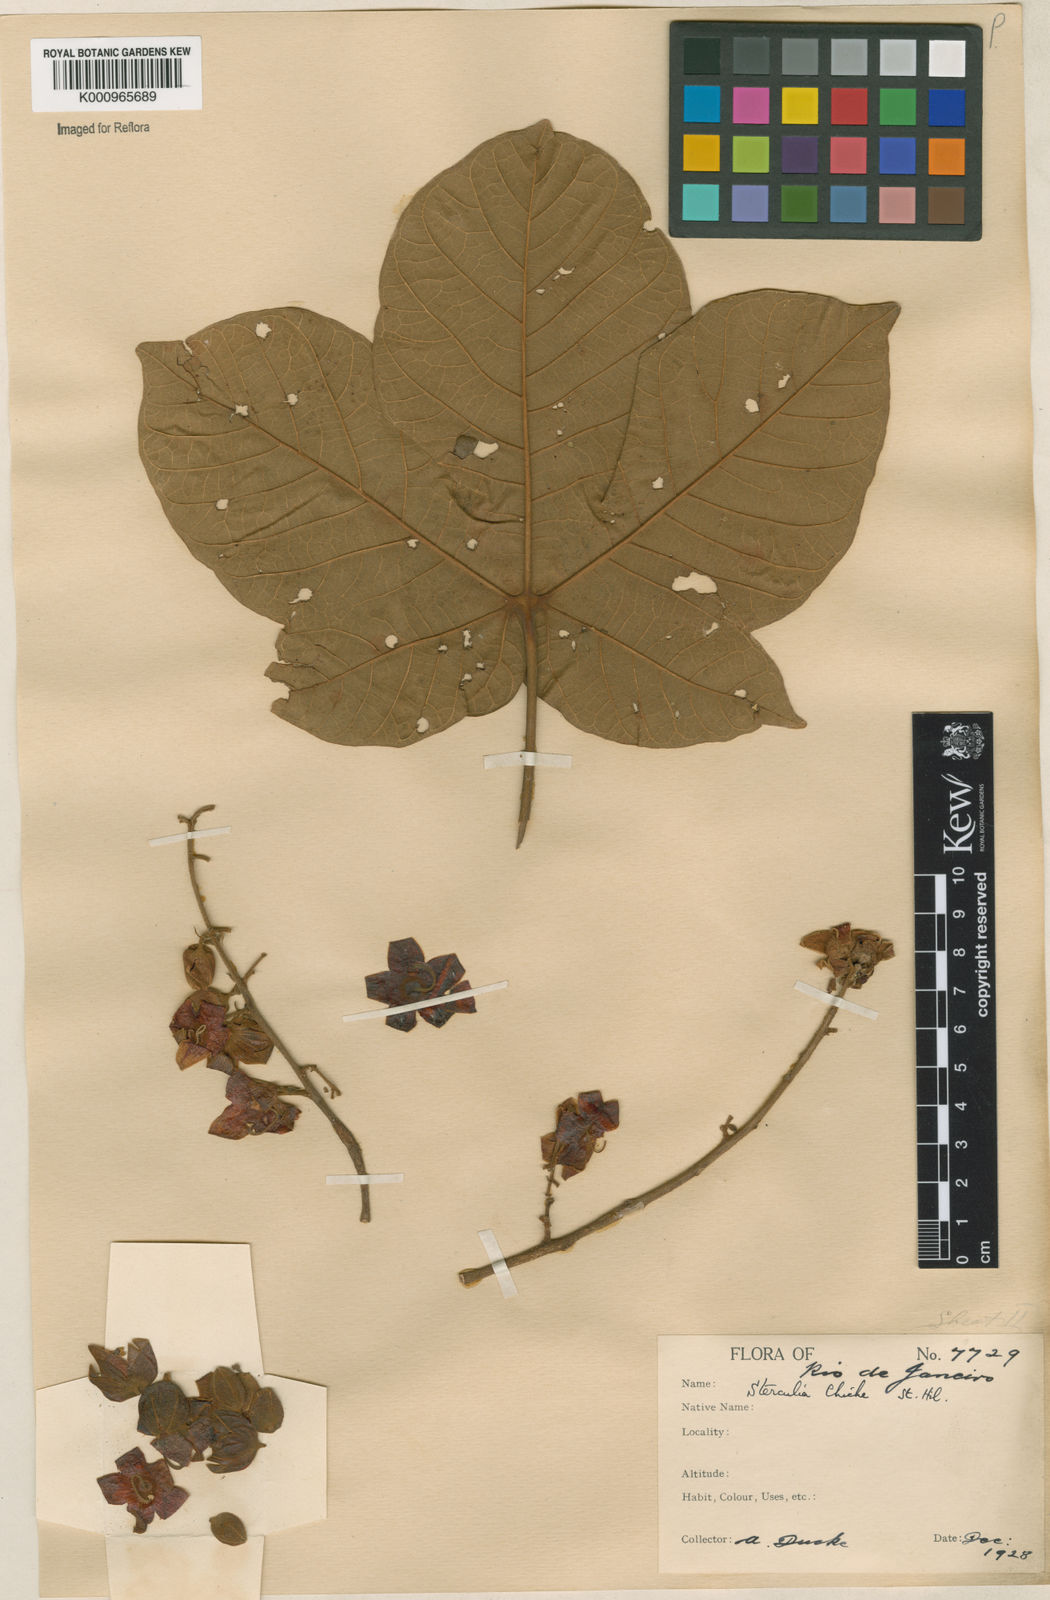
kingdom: Plantae
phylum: Tracheophyta
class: Magnoliopsida
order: Malvales
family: Malvaceae
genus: Sterculia
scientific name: Sterculia apetala
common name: Panama tree
